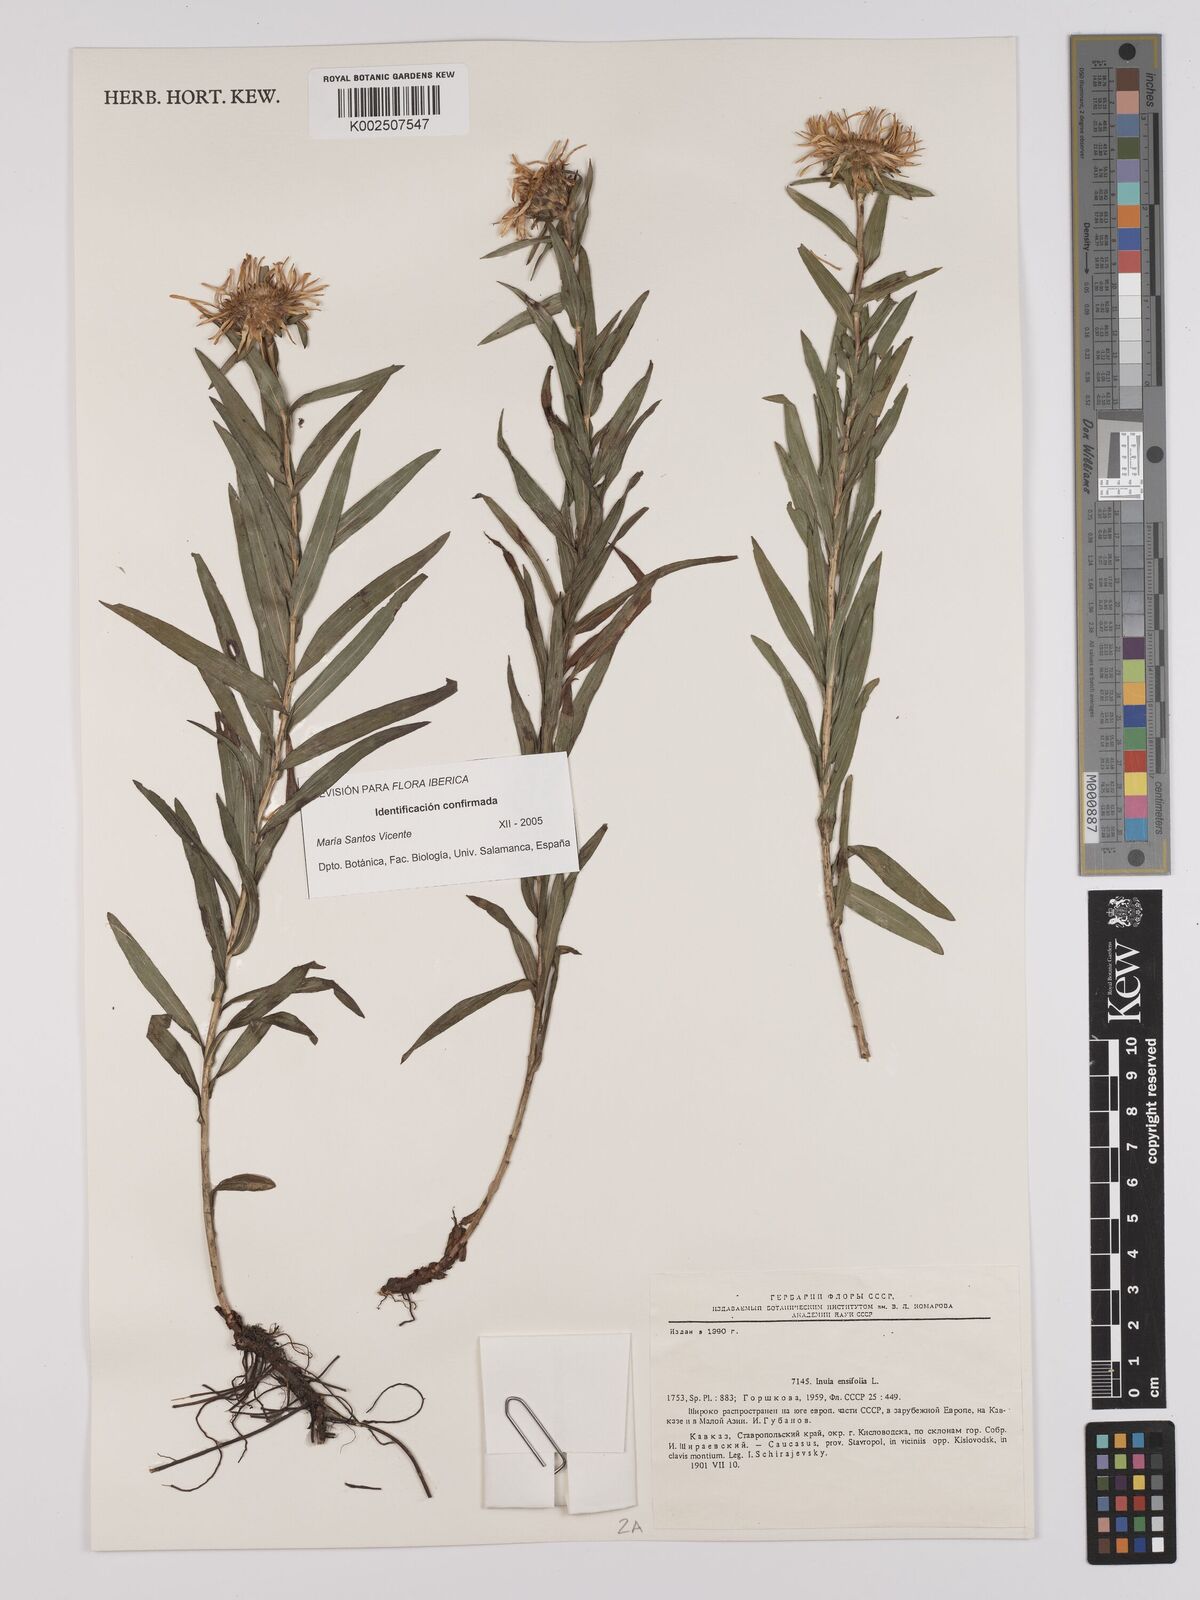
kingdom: Plantae
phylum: Tracheophyta
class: Magnoliopsida
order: Asterales
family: Asteraceae
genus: Pentanema
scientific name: Pentanema ensifolium
